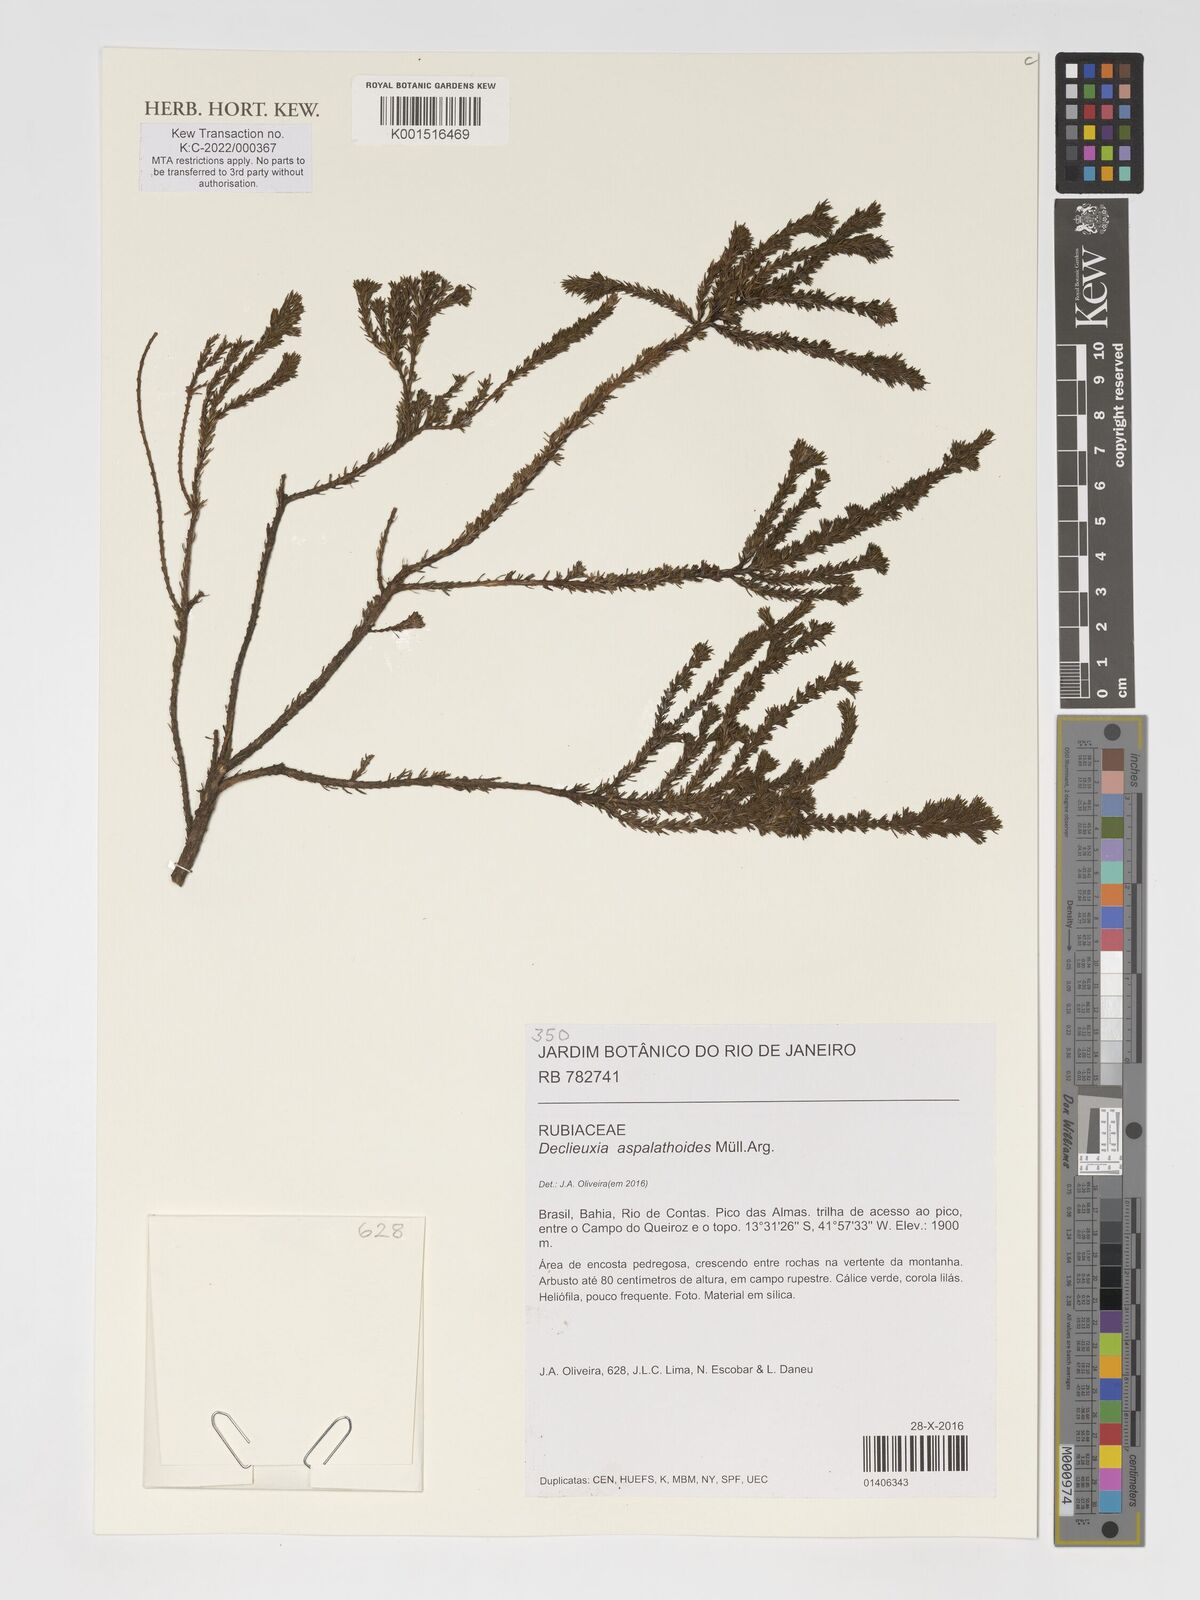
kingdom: Plantae
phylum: Tracheophyta
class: Magnoliopsida
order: Gentianales
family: Rubiaceae
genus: Declieuxia
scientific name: Declieuxia aspalathoides
